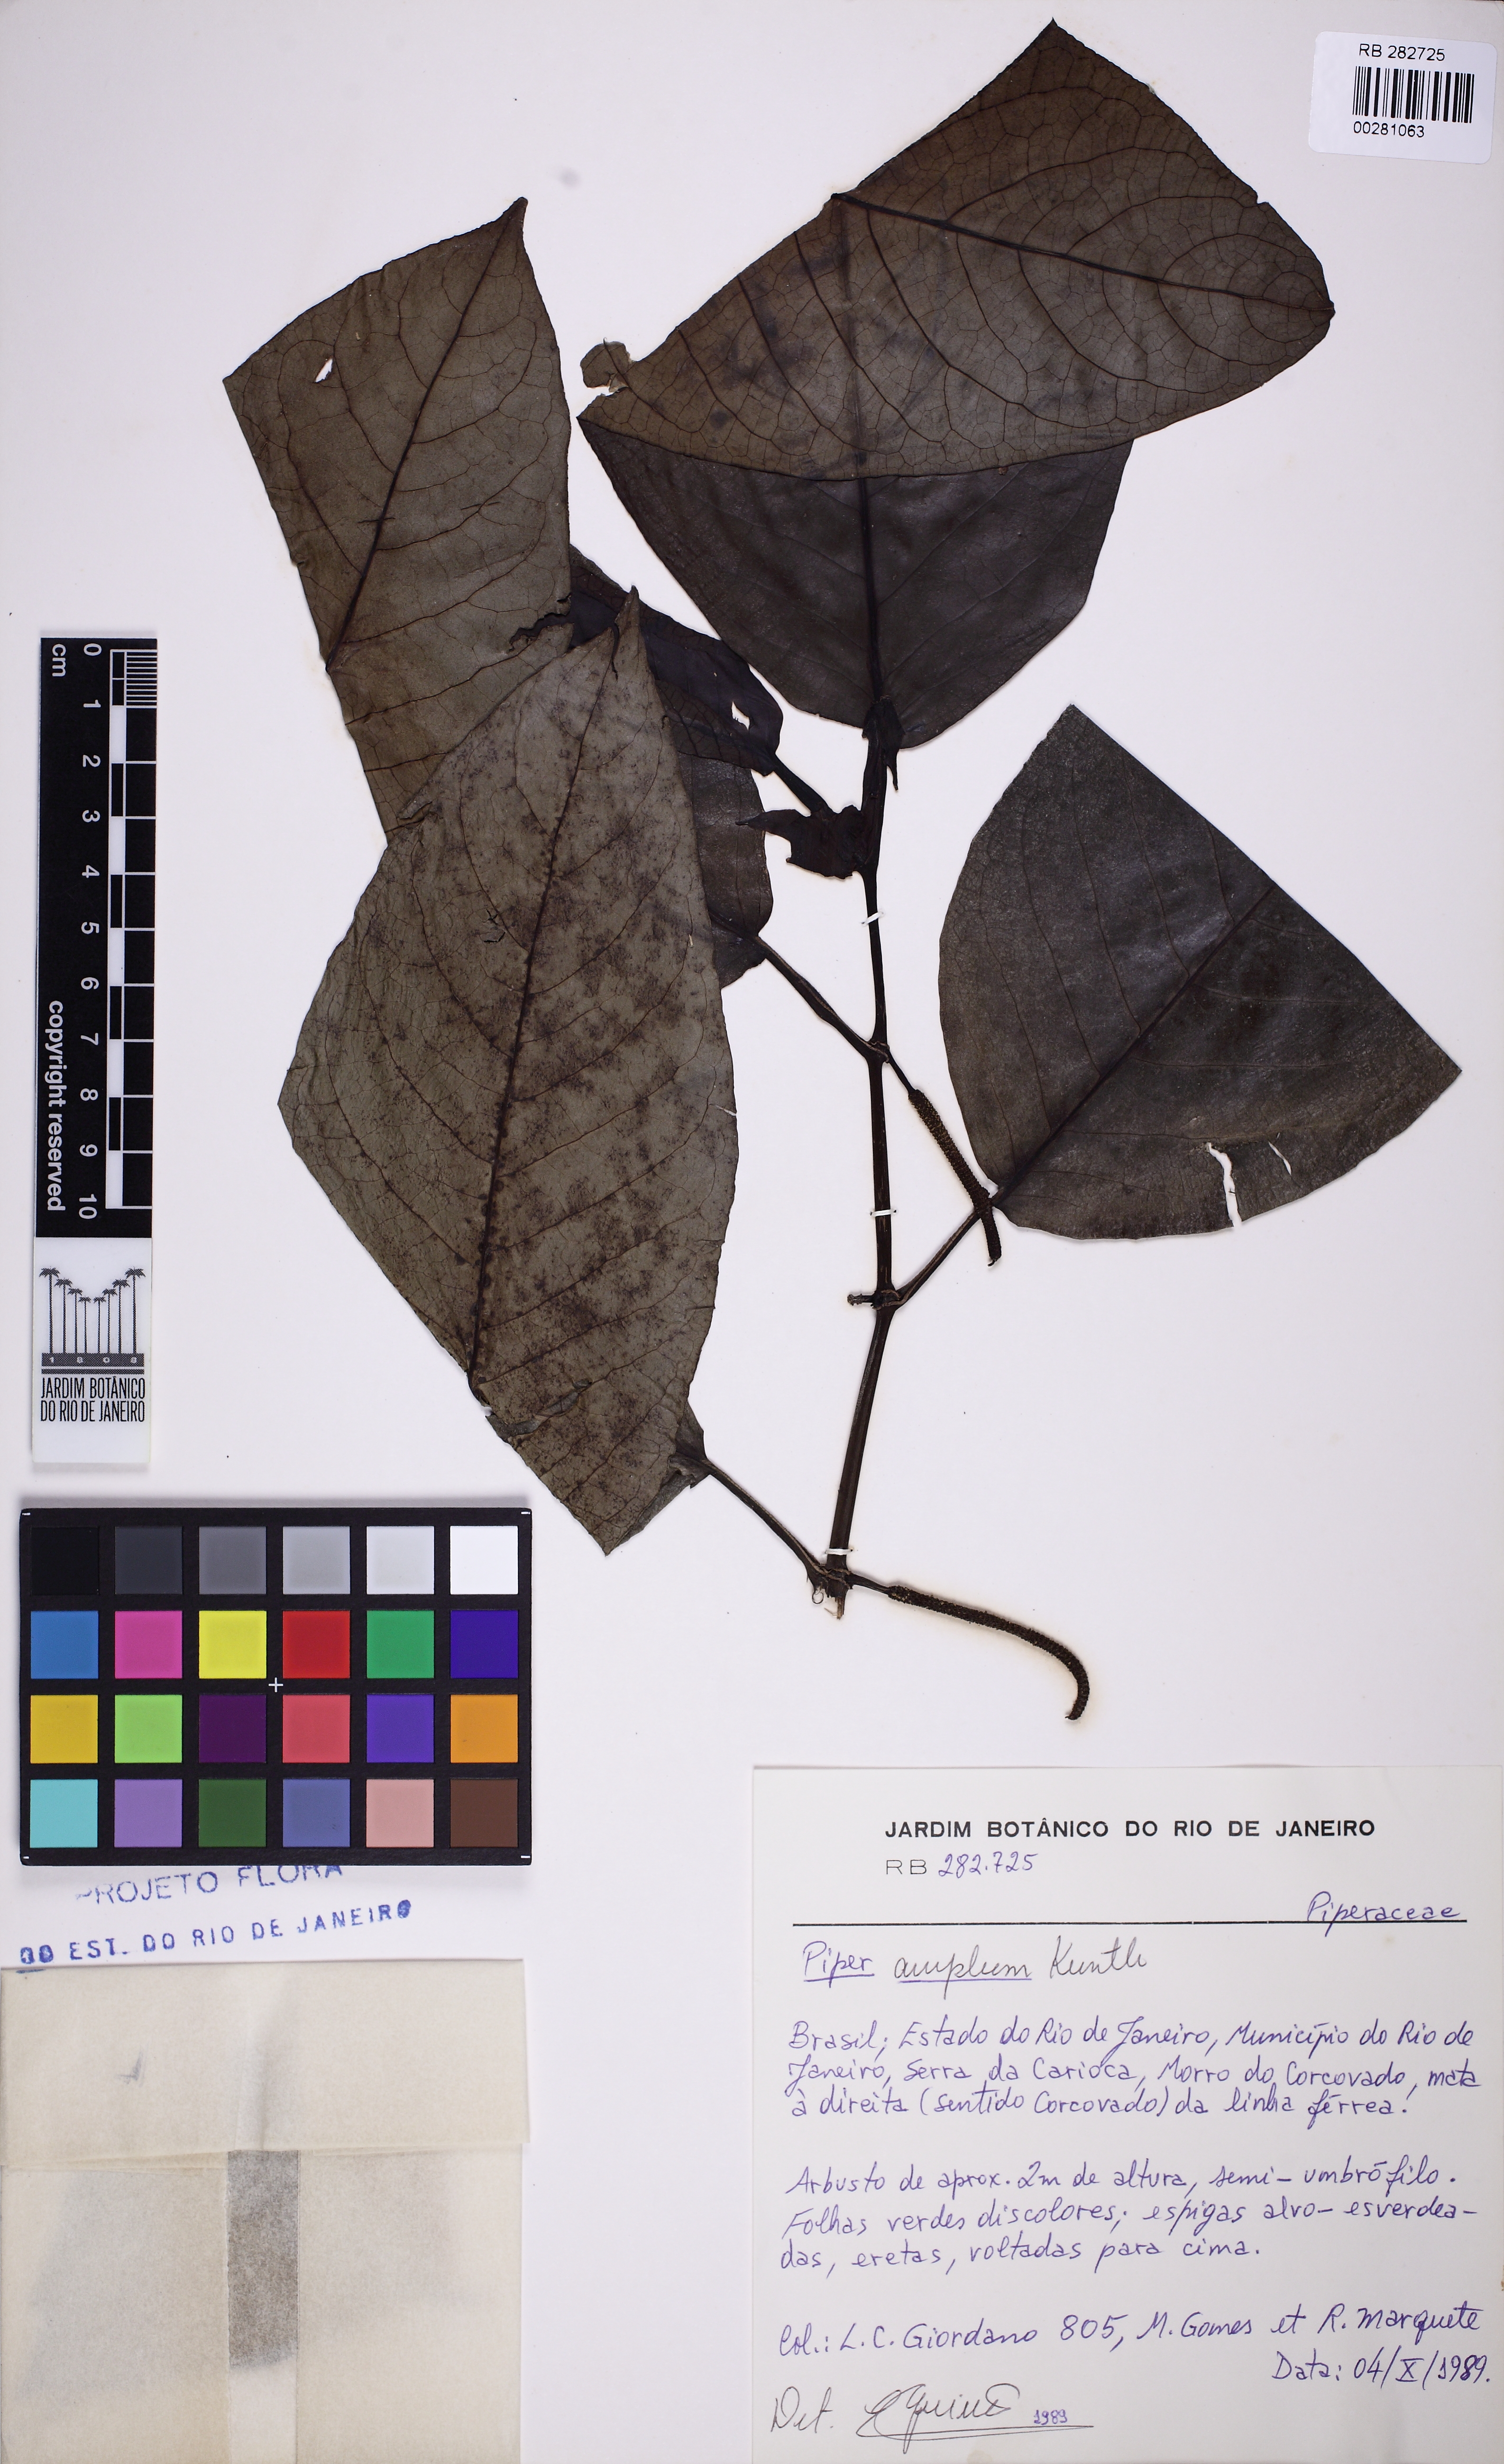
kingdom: Plantae
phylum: Tracheophyta
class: Magnoliopsida
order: Piperales
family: Piperaceae
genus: Piper
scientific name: Piper fluminense
